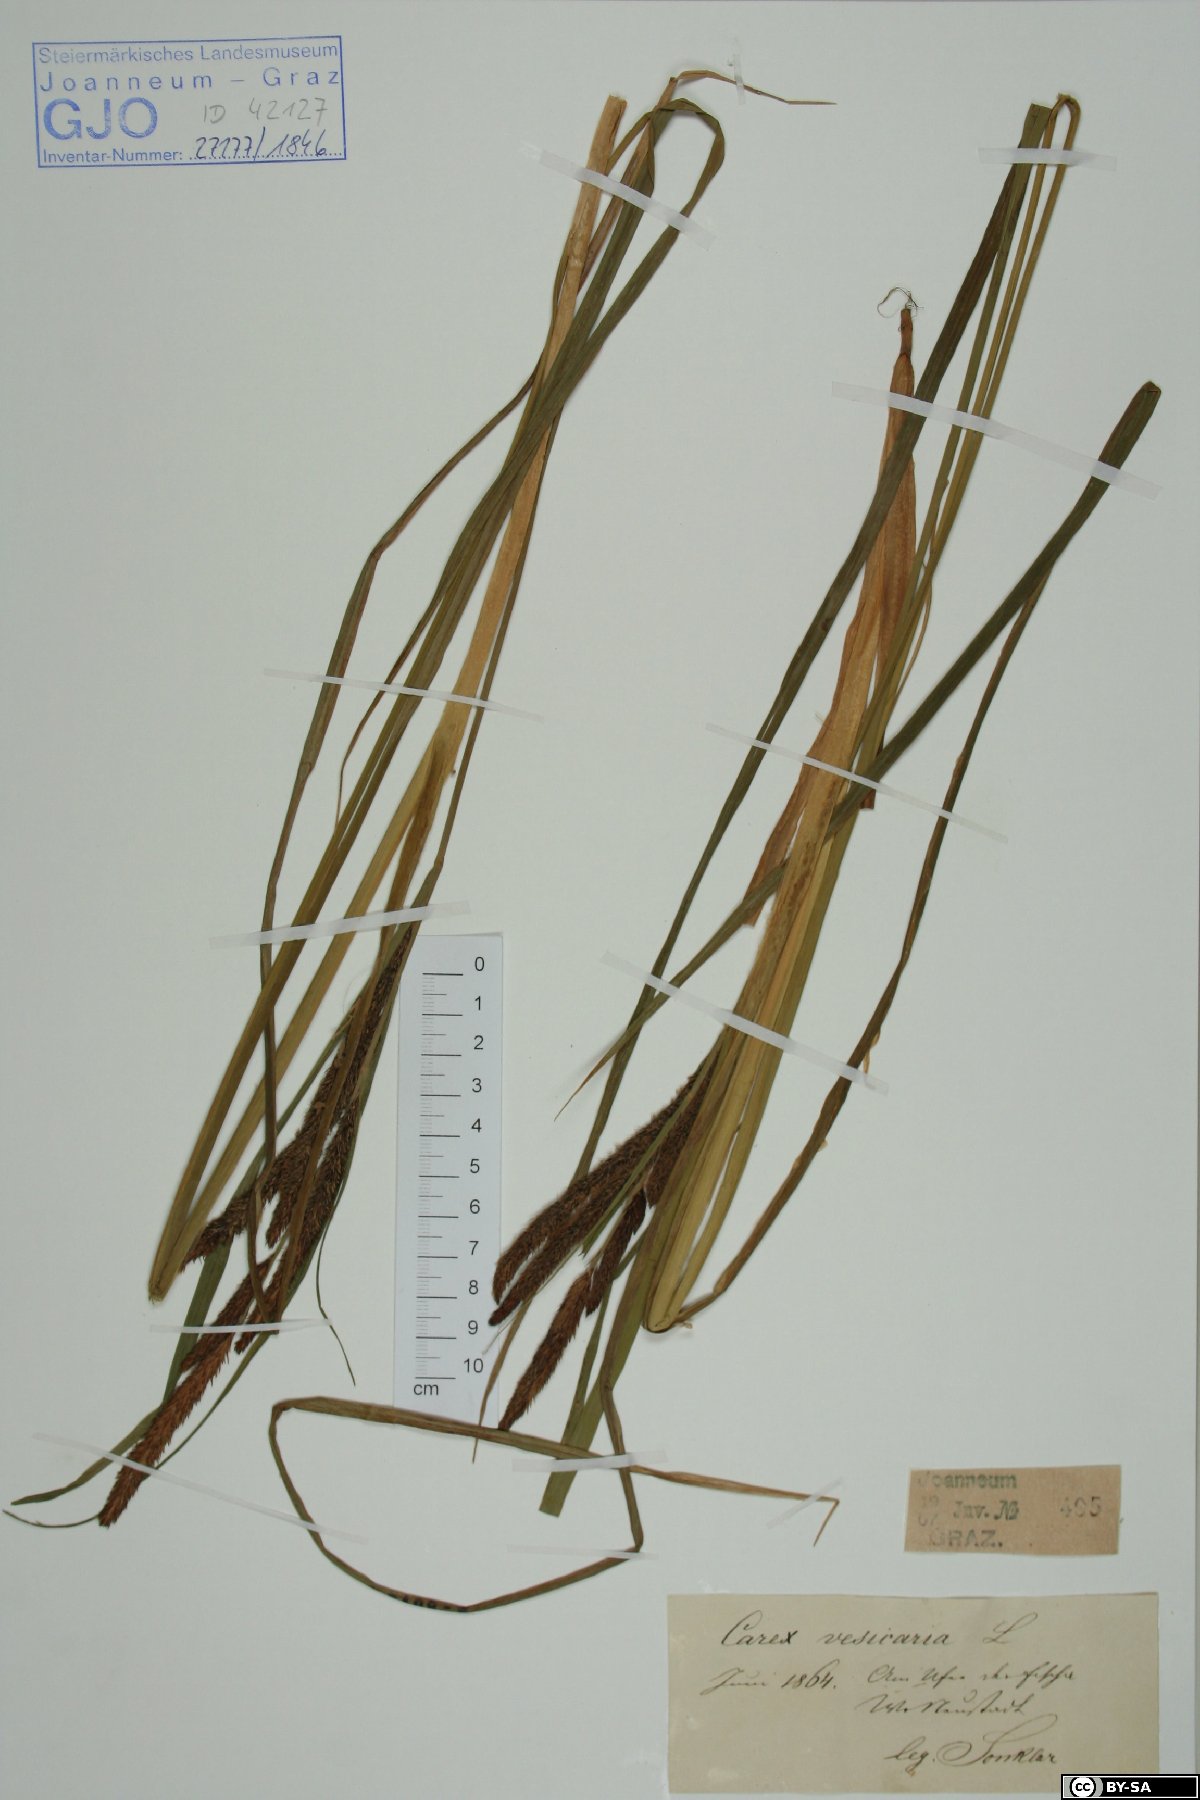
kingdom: Plantae
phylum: Tracheophyta
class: Liliopsida
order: Poales
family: Cyperaceae
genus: Carex
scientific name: Carex vesicaria
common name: Bladder-sedge
